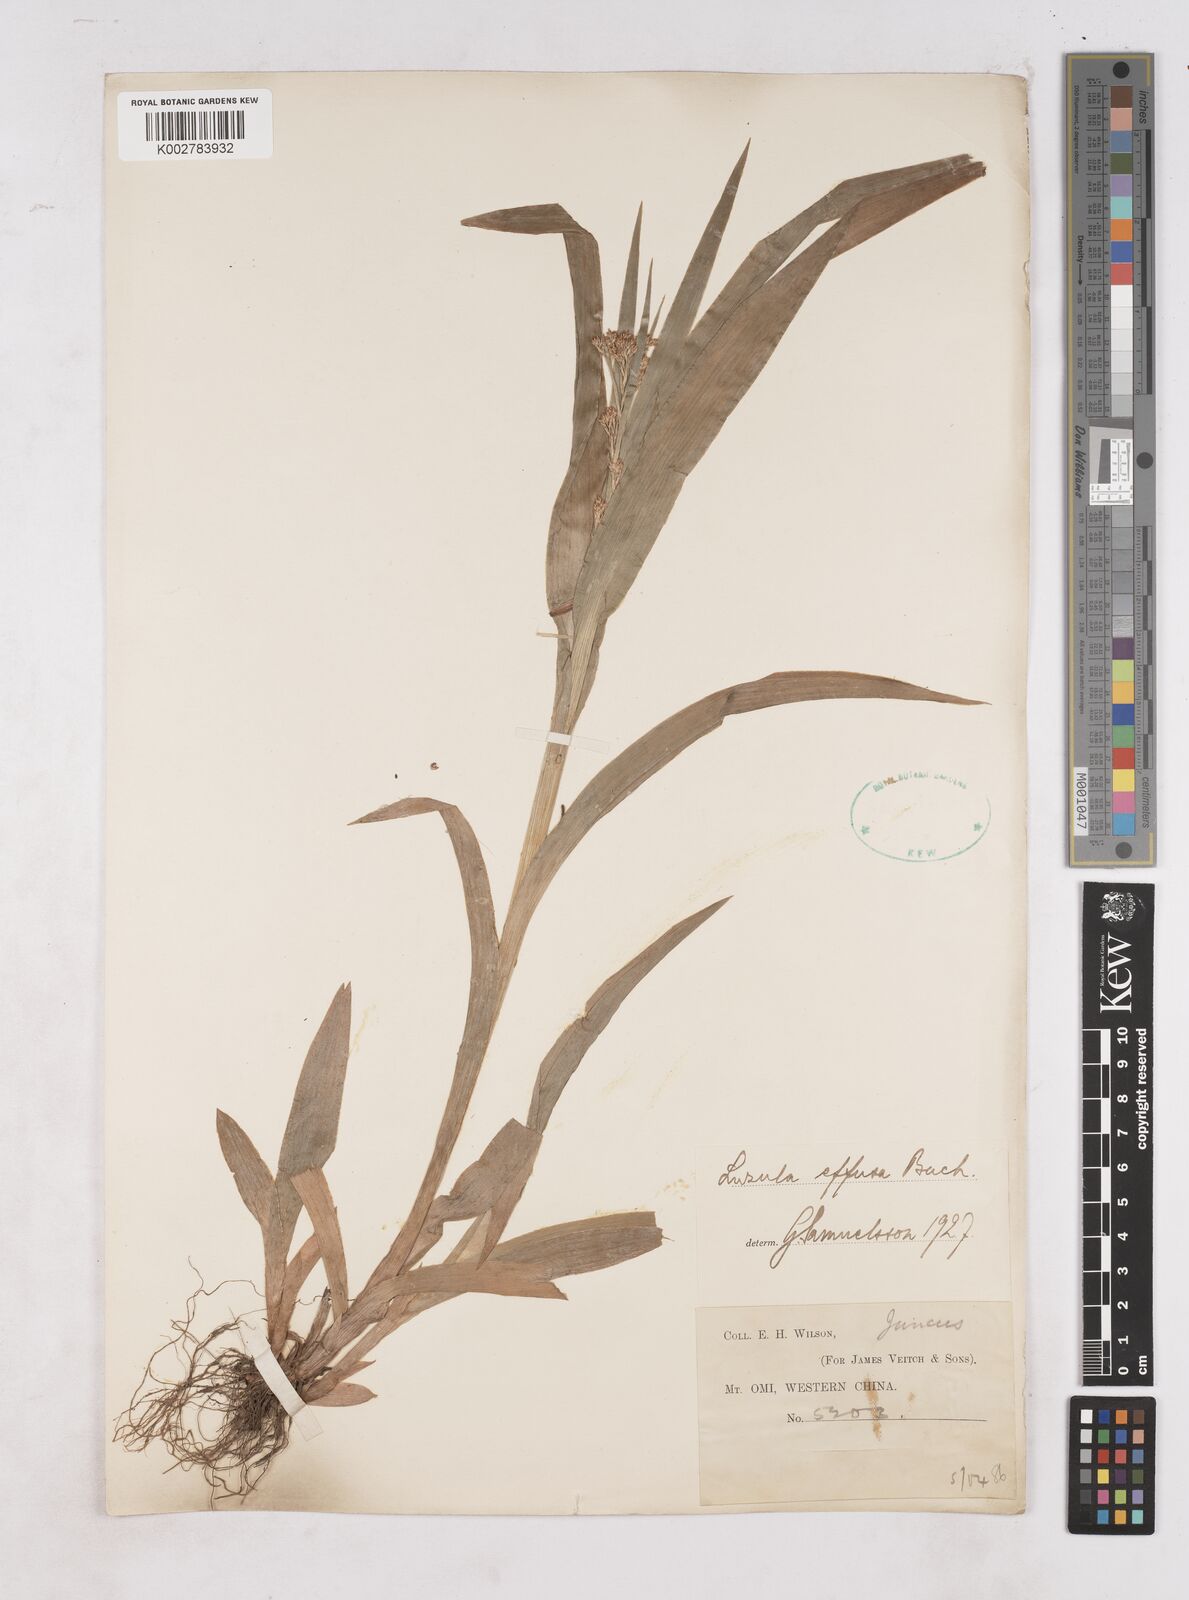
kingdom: Plantae
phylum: Tracheophyta
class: Liliopsida
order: Poales
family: Juncaceae
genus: Luzula
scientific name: Luzula effusa
